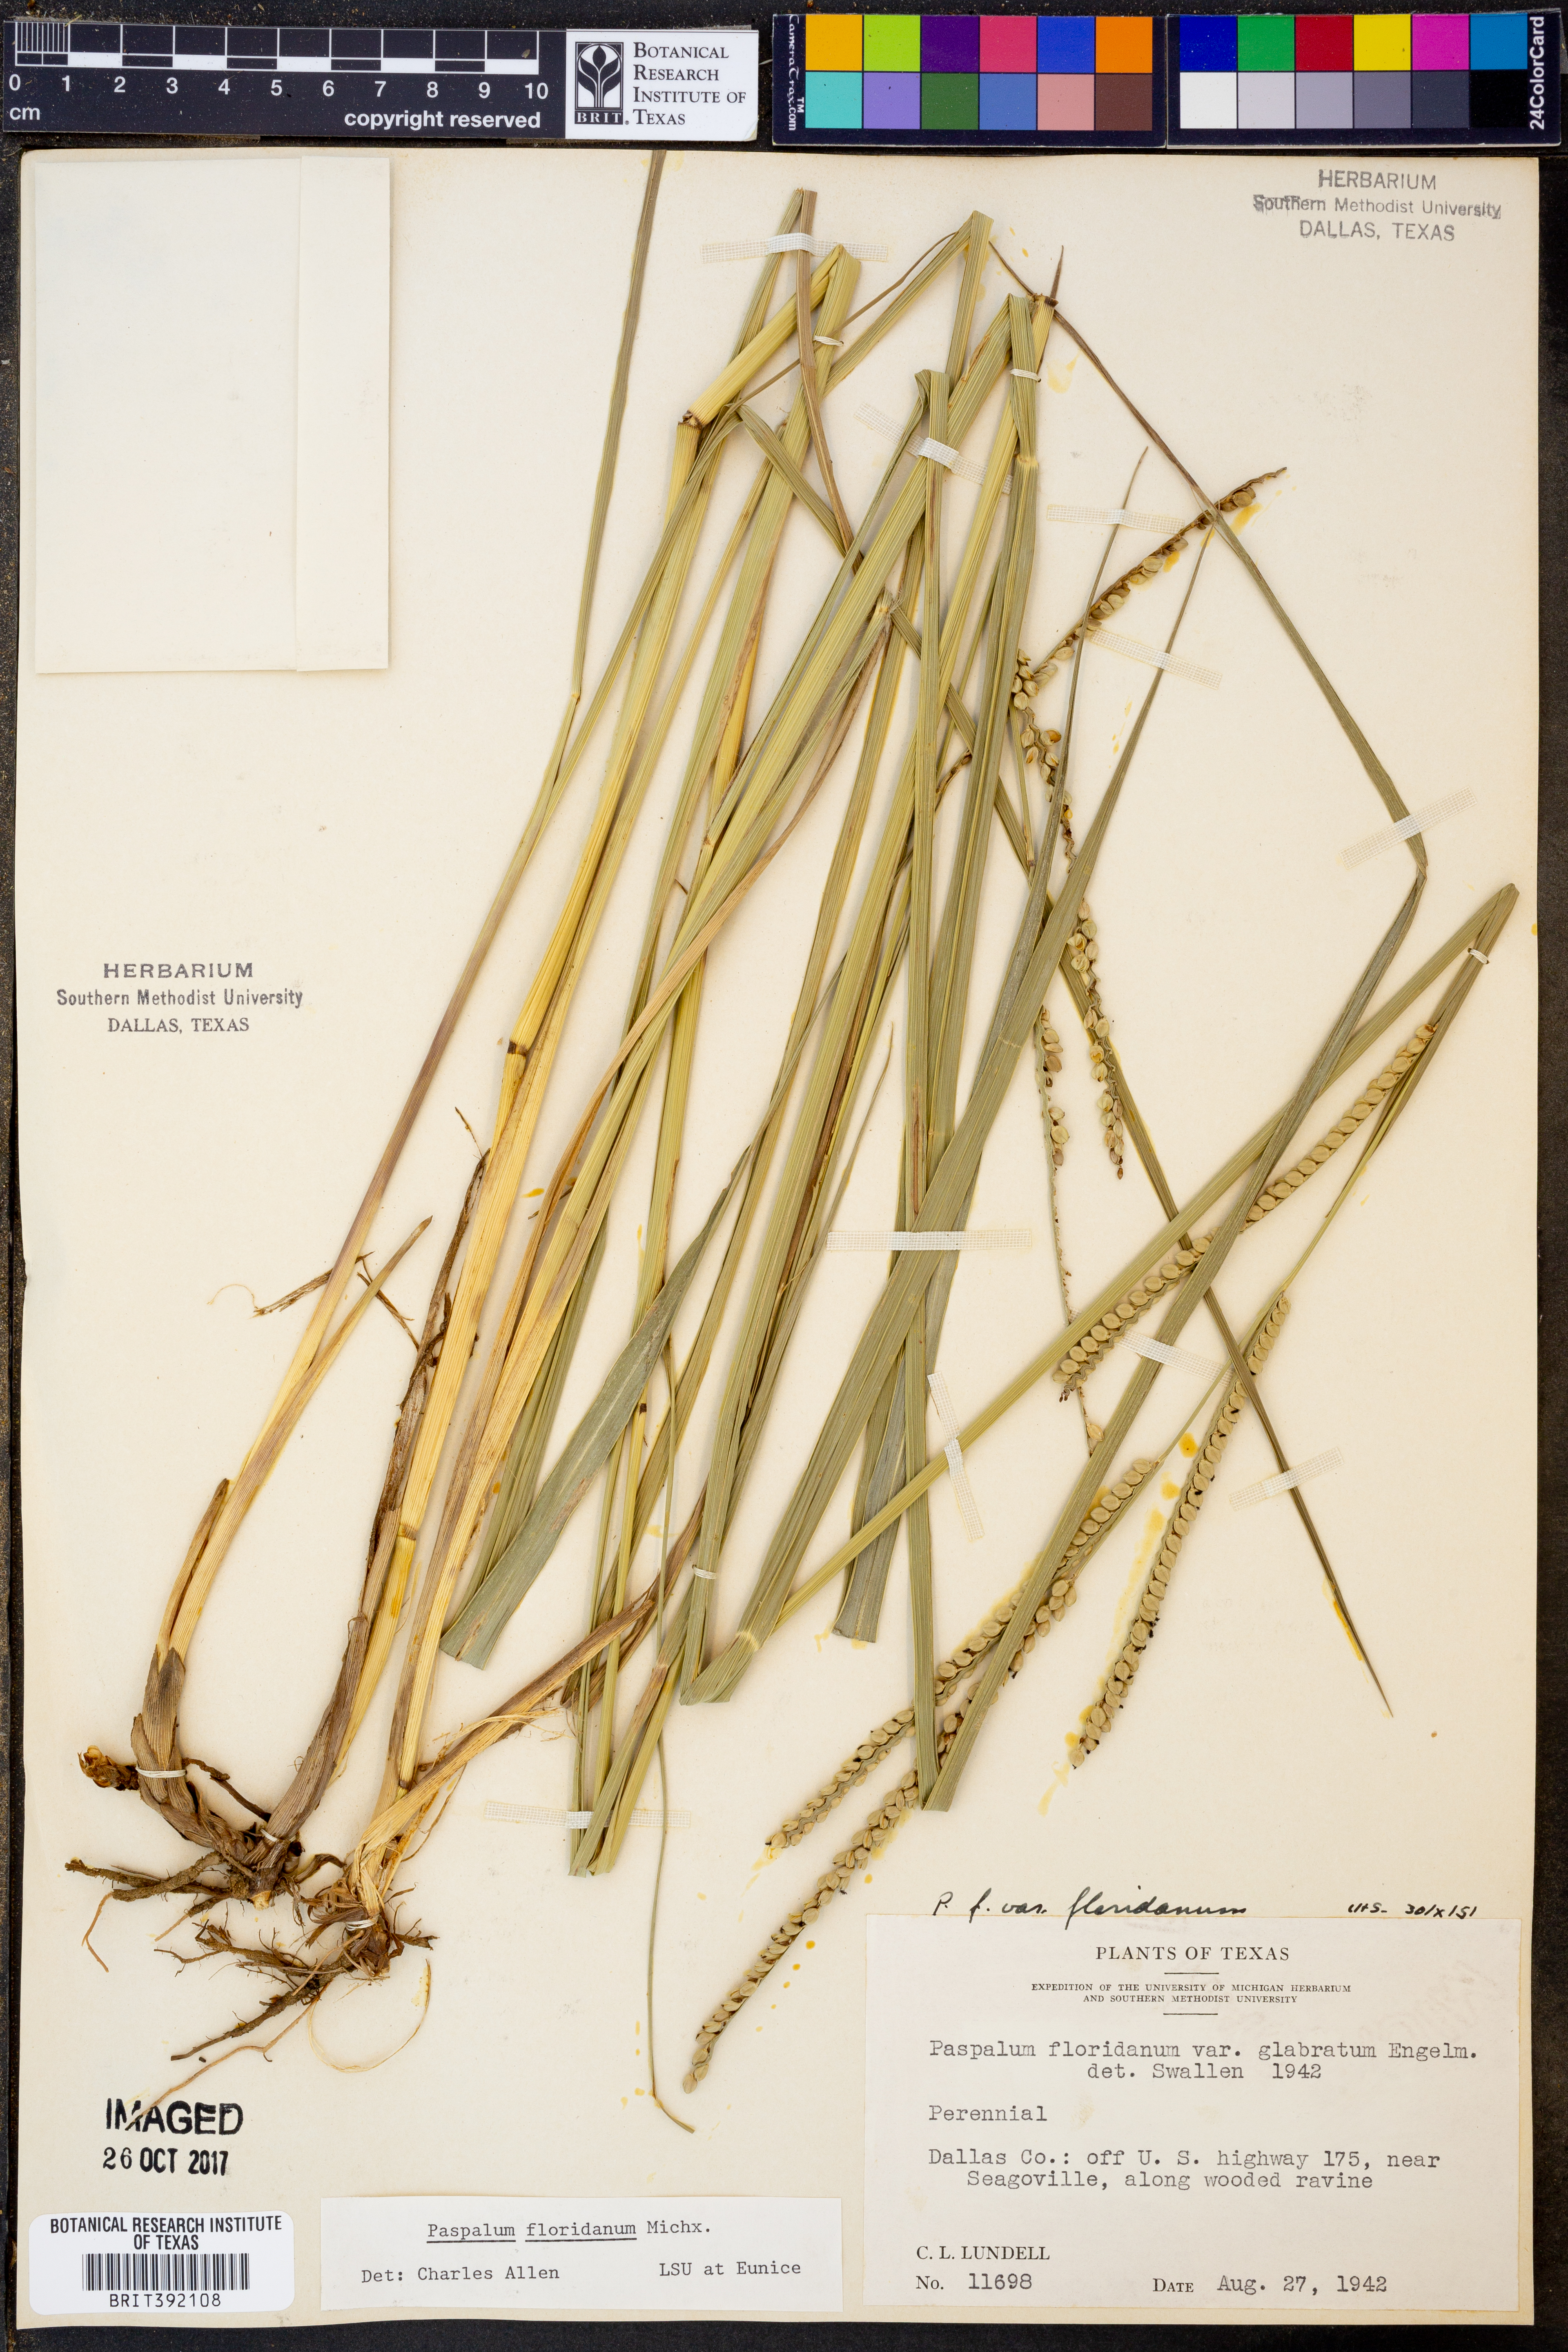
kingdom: Plantae
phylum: Tracheophyta
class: Liliopsida
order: Poales
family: Poaceae
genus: Paspalum
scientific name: Paspalum floridanum
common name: Florida paspalum
